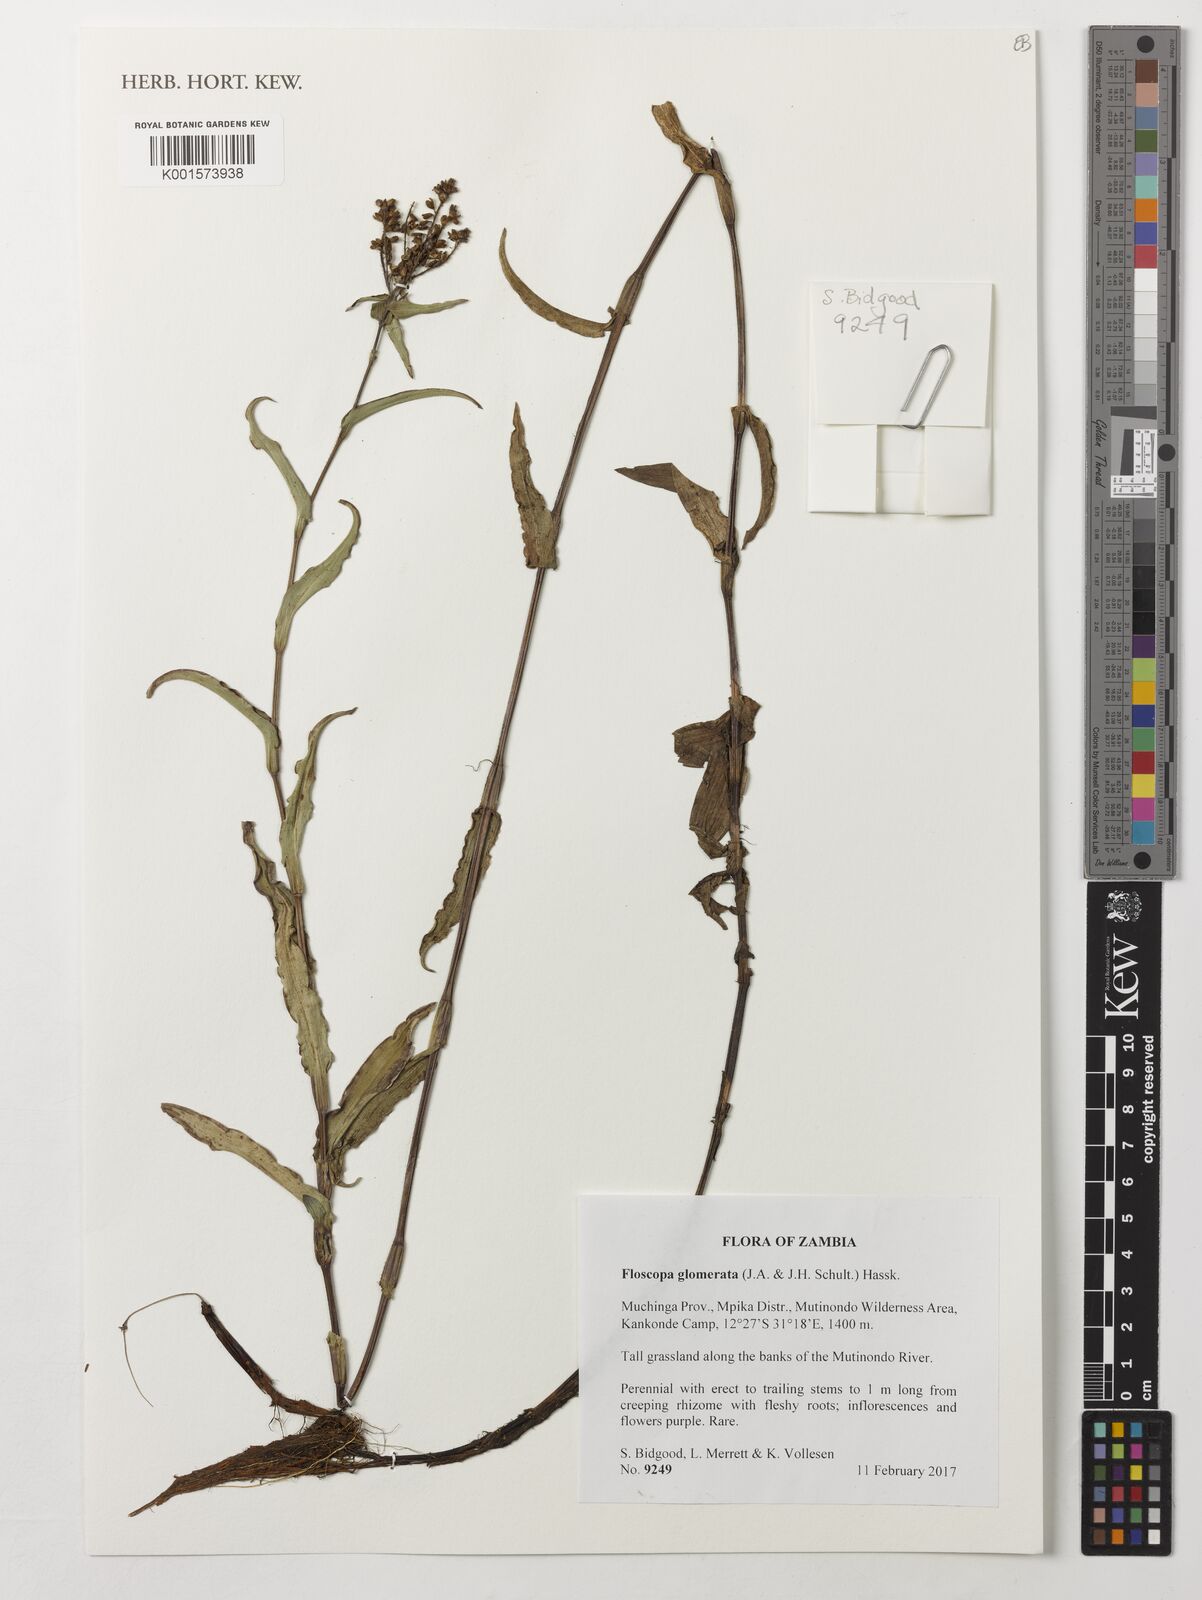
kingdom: Plantae
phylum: Tracheophyta
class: Liliopsida
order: Commelinales
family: Commelinaceae
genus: Floscopa
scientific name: Floscopa glomerata
